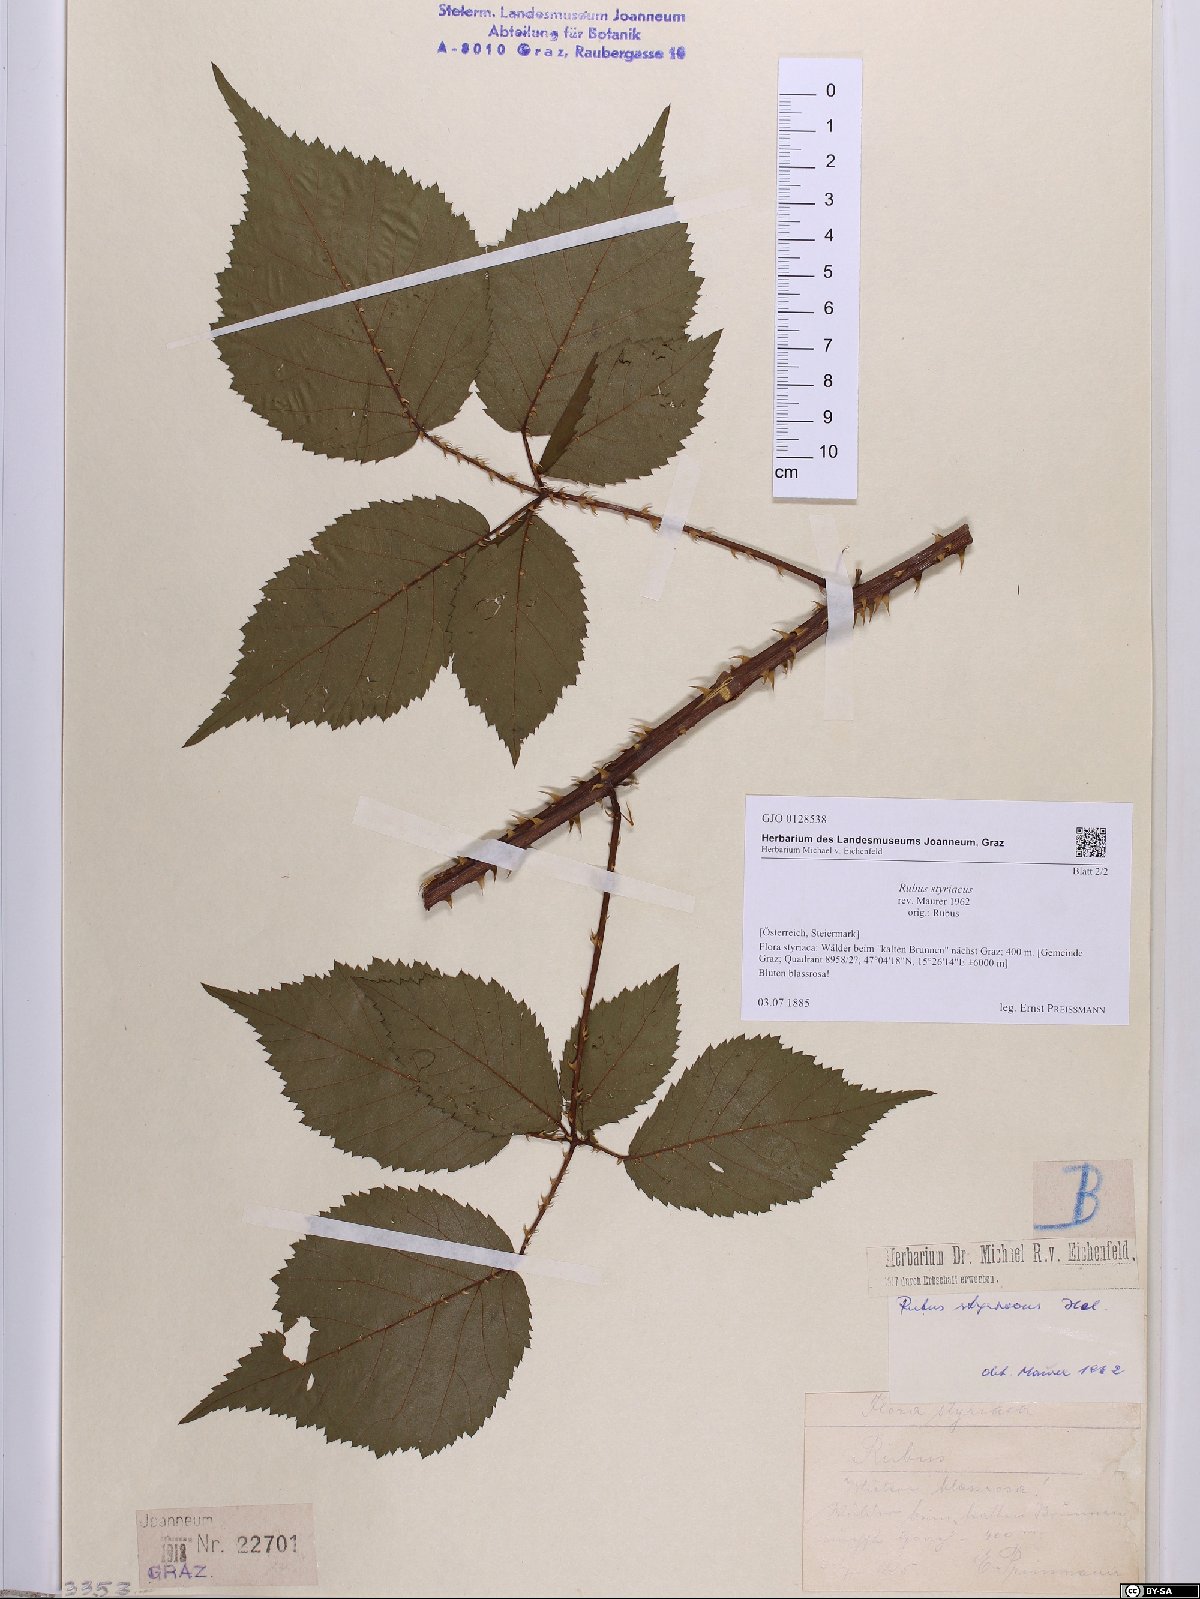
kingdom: Plantae
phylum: Tracheophyta
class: Magnoliopsida
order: Rosales
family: Rosaceae
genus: Rubus
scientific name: Rubus styriacus
